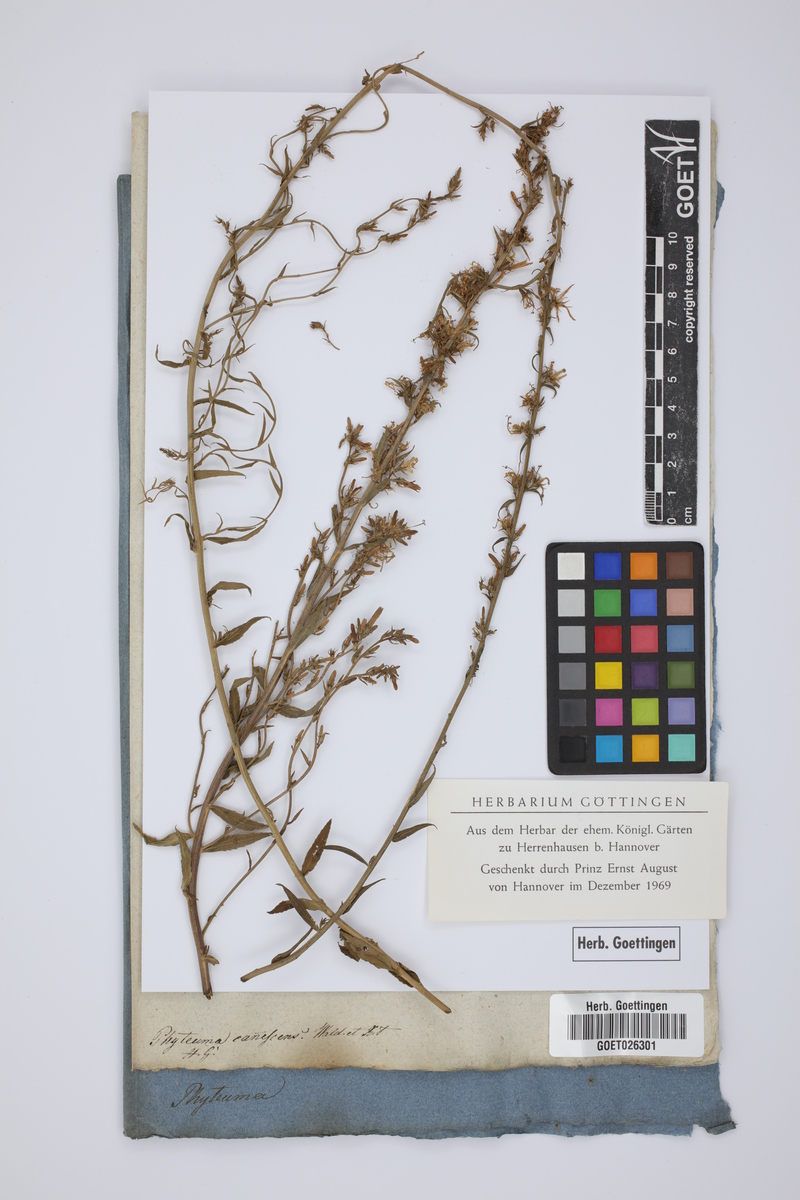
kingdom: Plantae
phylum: Tracheophyta
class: Magnoliopsida
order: Asterales
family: Campanulaceae
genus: Asyneuma
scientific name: Asyneuma canescens
